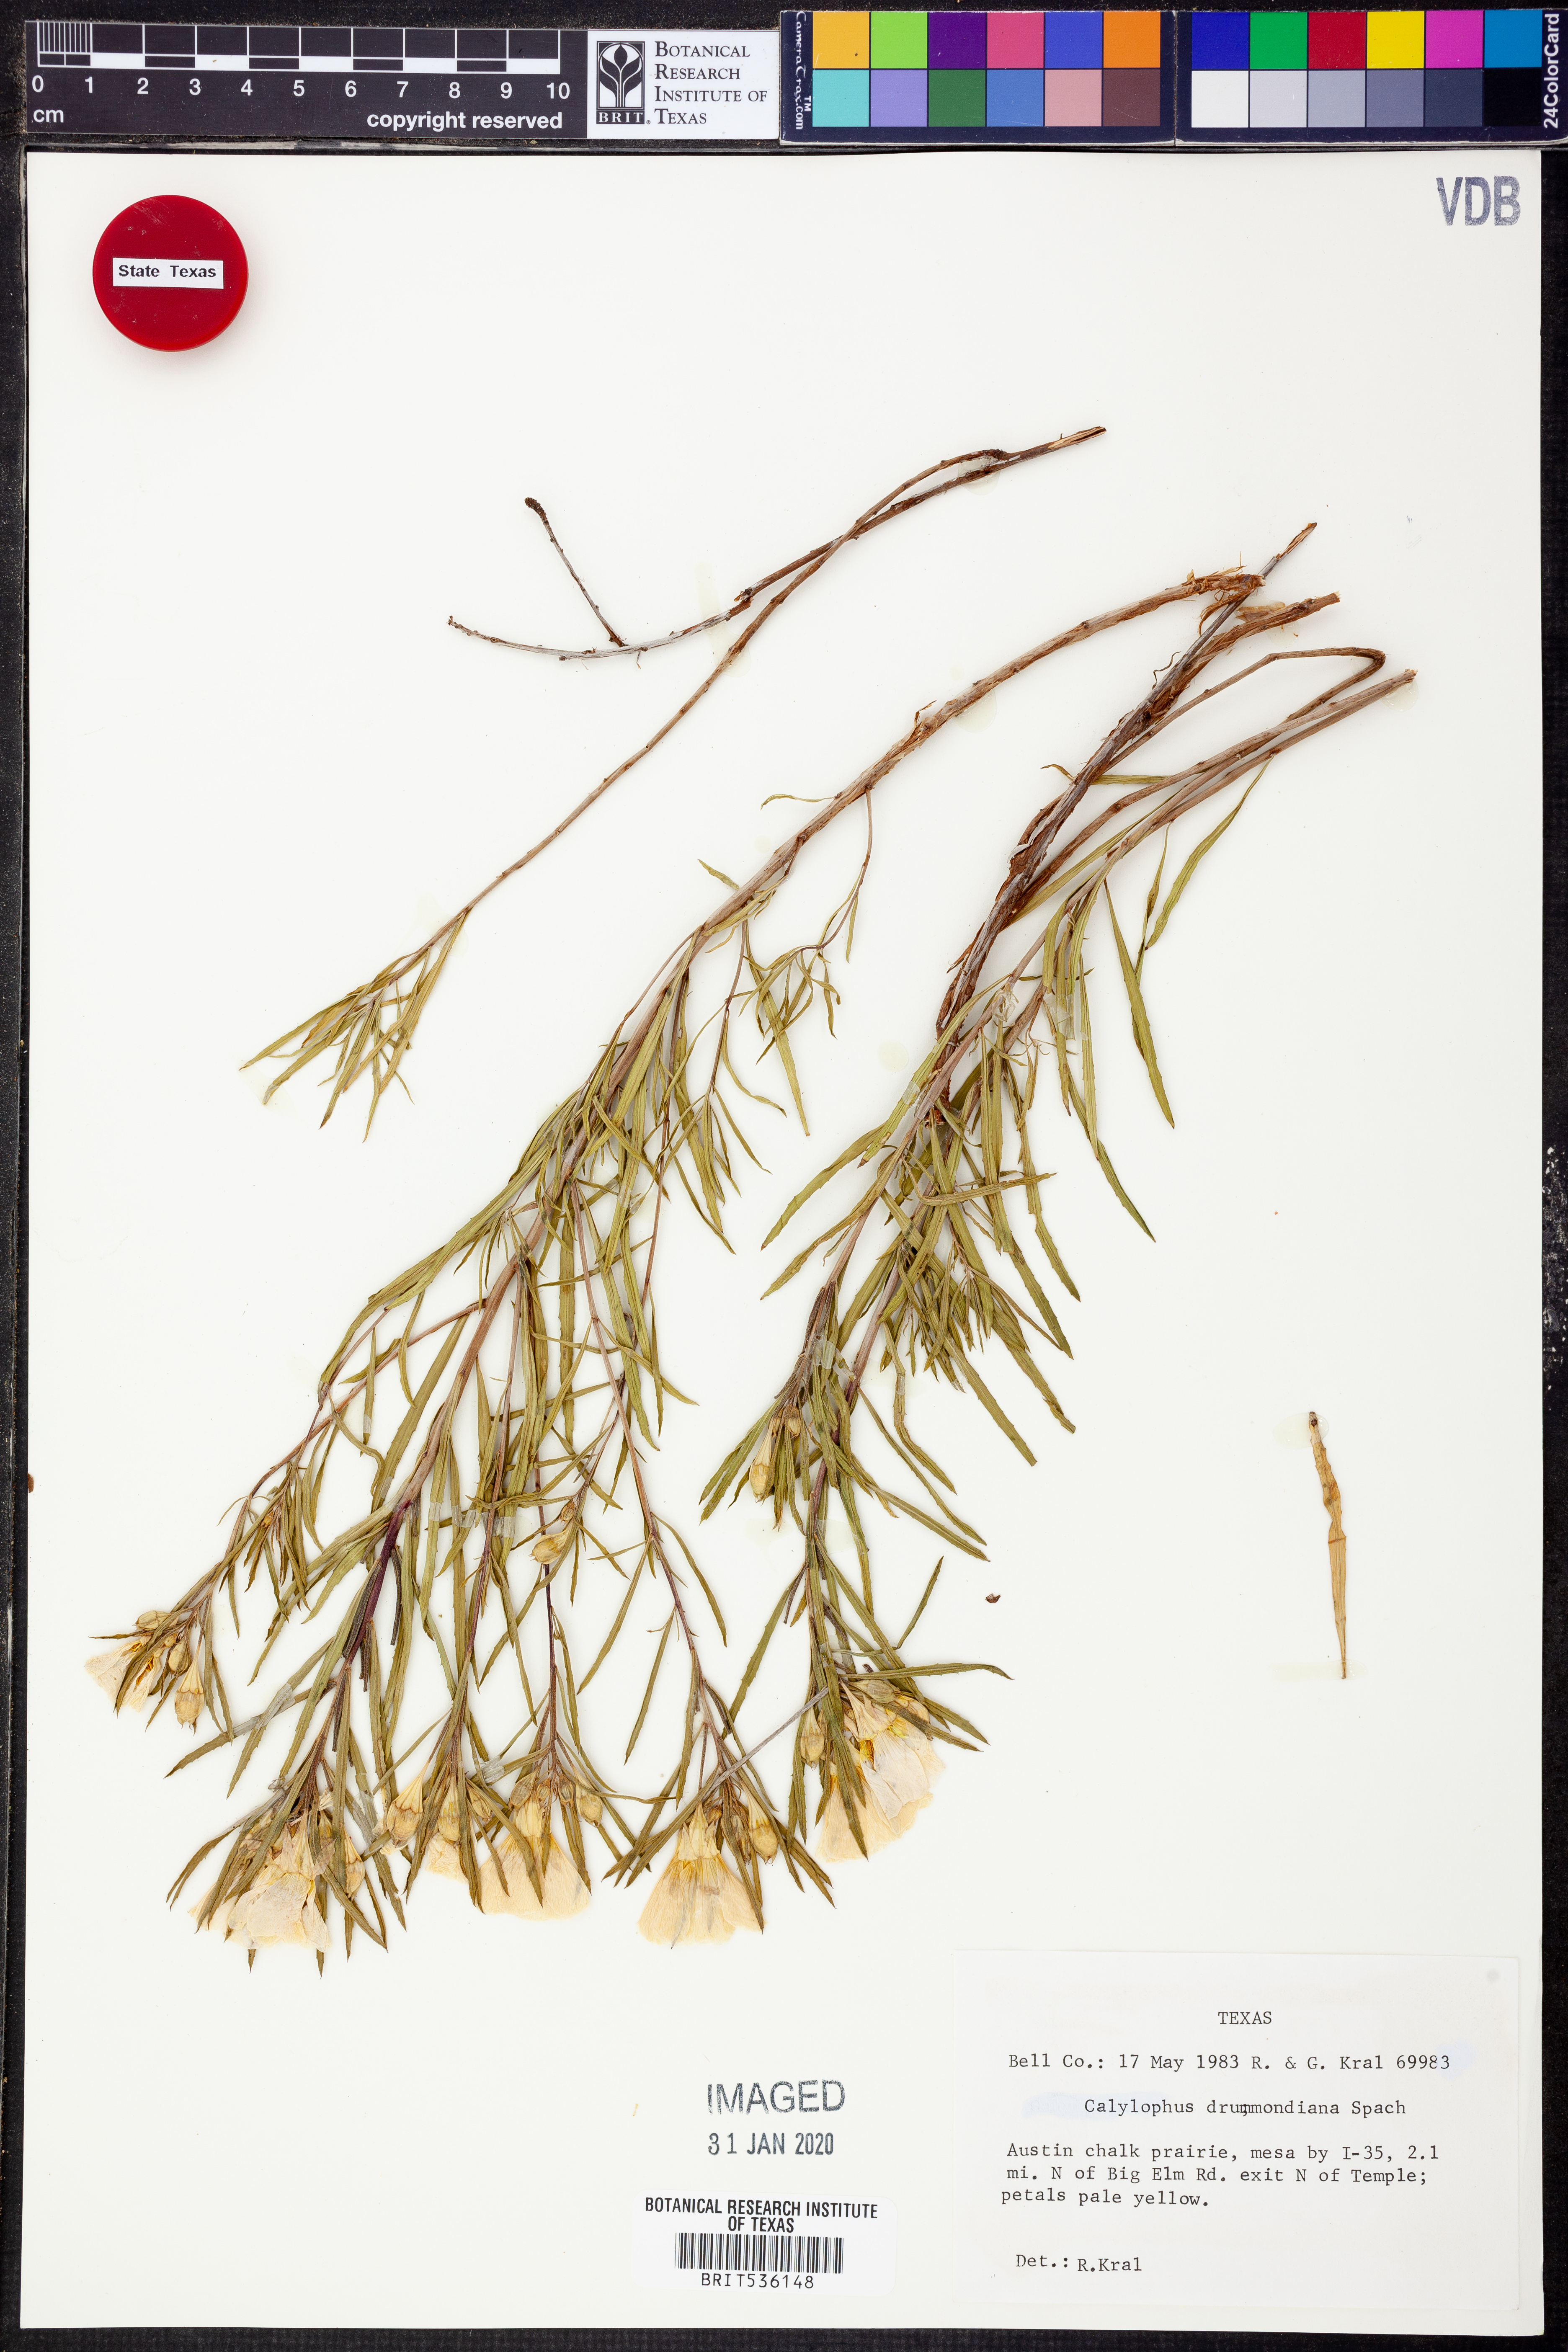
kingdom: Plantae
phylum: Tracheophyta
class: Magnoliopsida
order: Myrtales
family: Onagraceae
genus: Oenothera
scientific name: Oenothera serrulata
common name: Half-shrub calylophus
